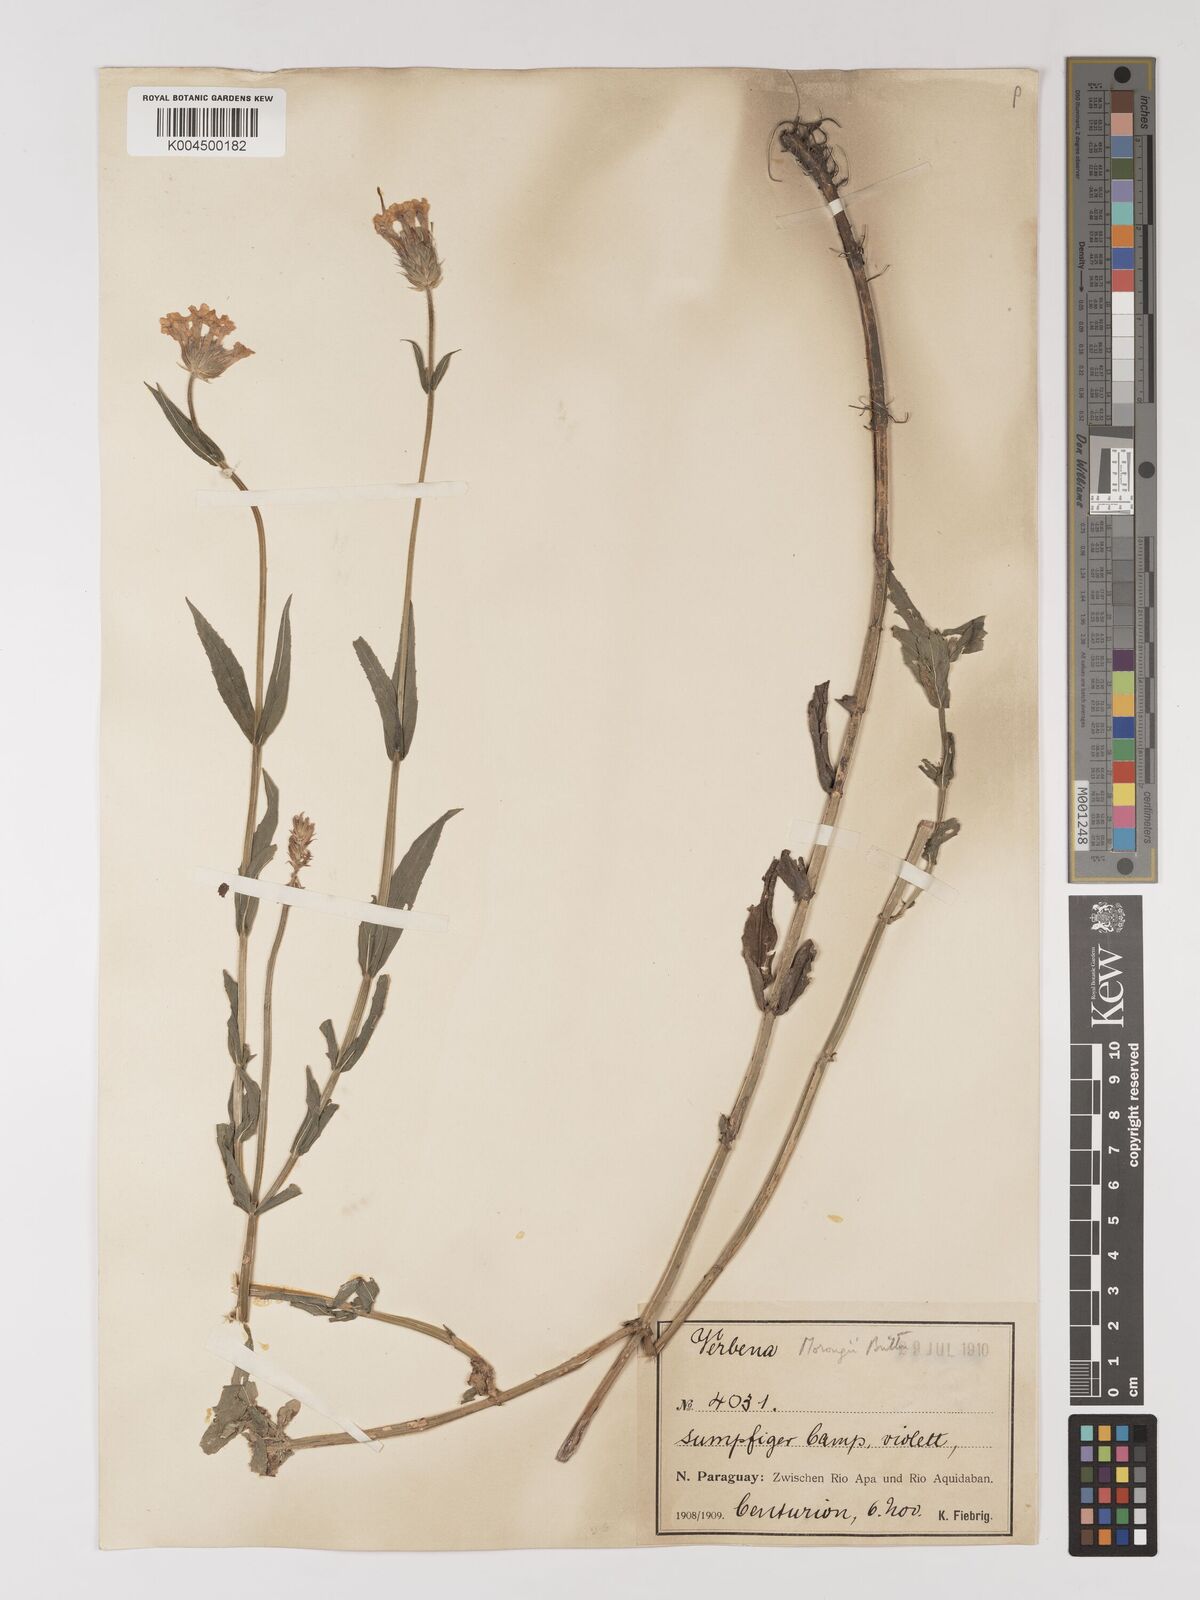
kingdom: Plantae
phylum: Tracheophyta
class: Magnoliopsida
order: Lamiales
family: Verbenaceae
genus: Verbena
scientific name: Verbena
